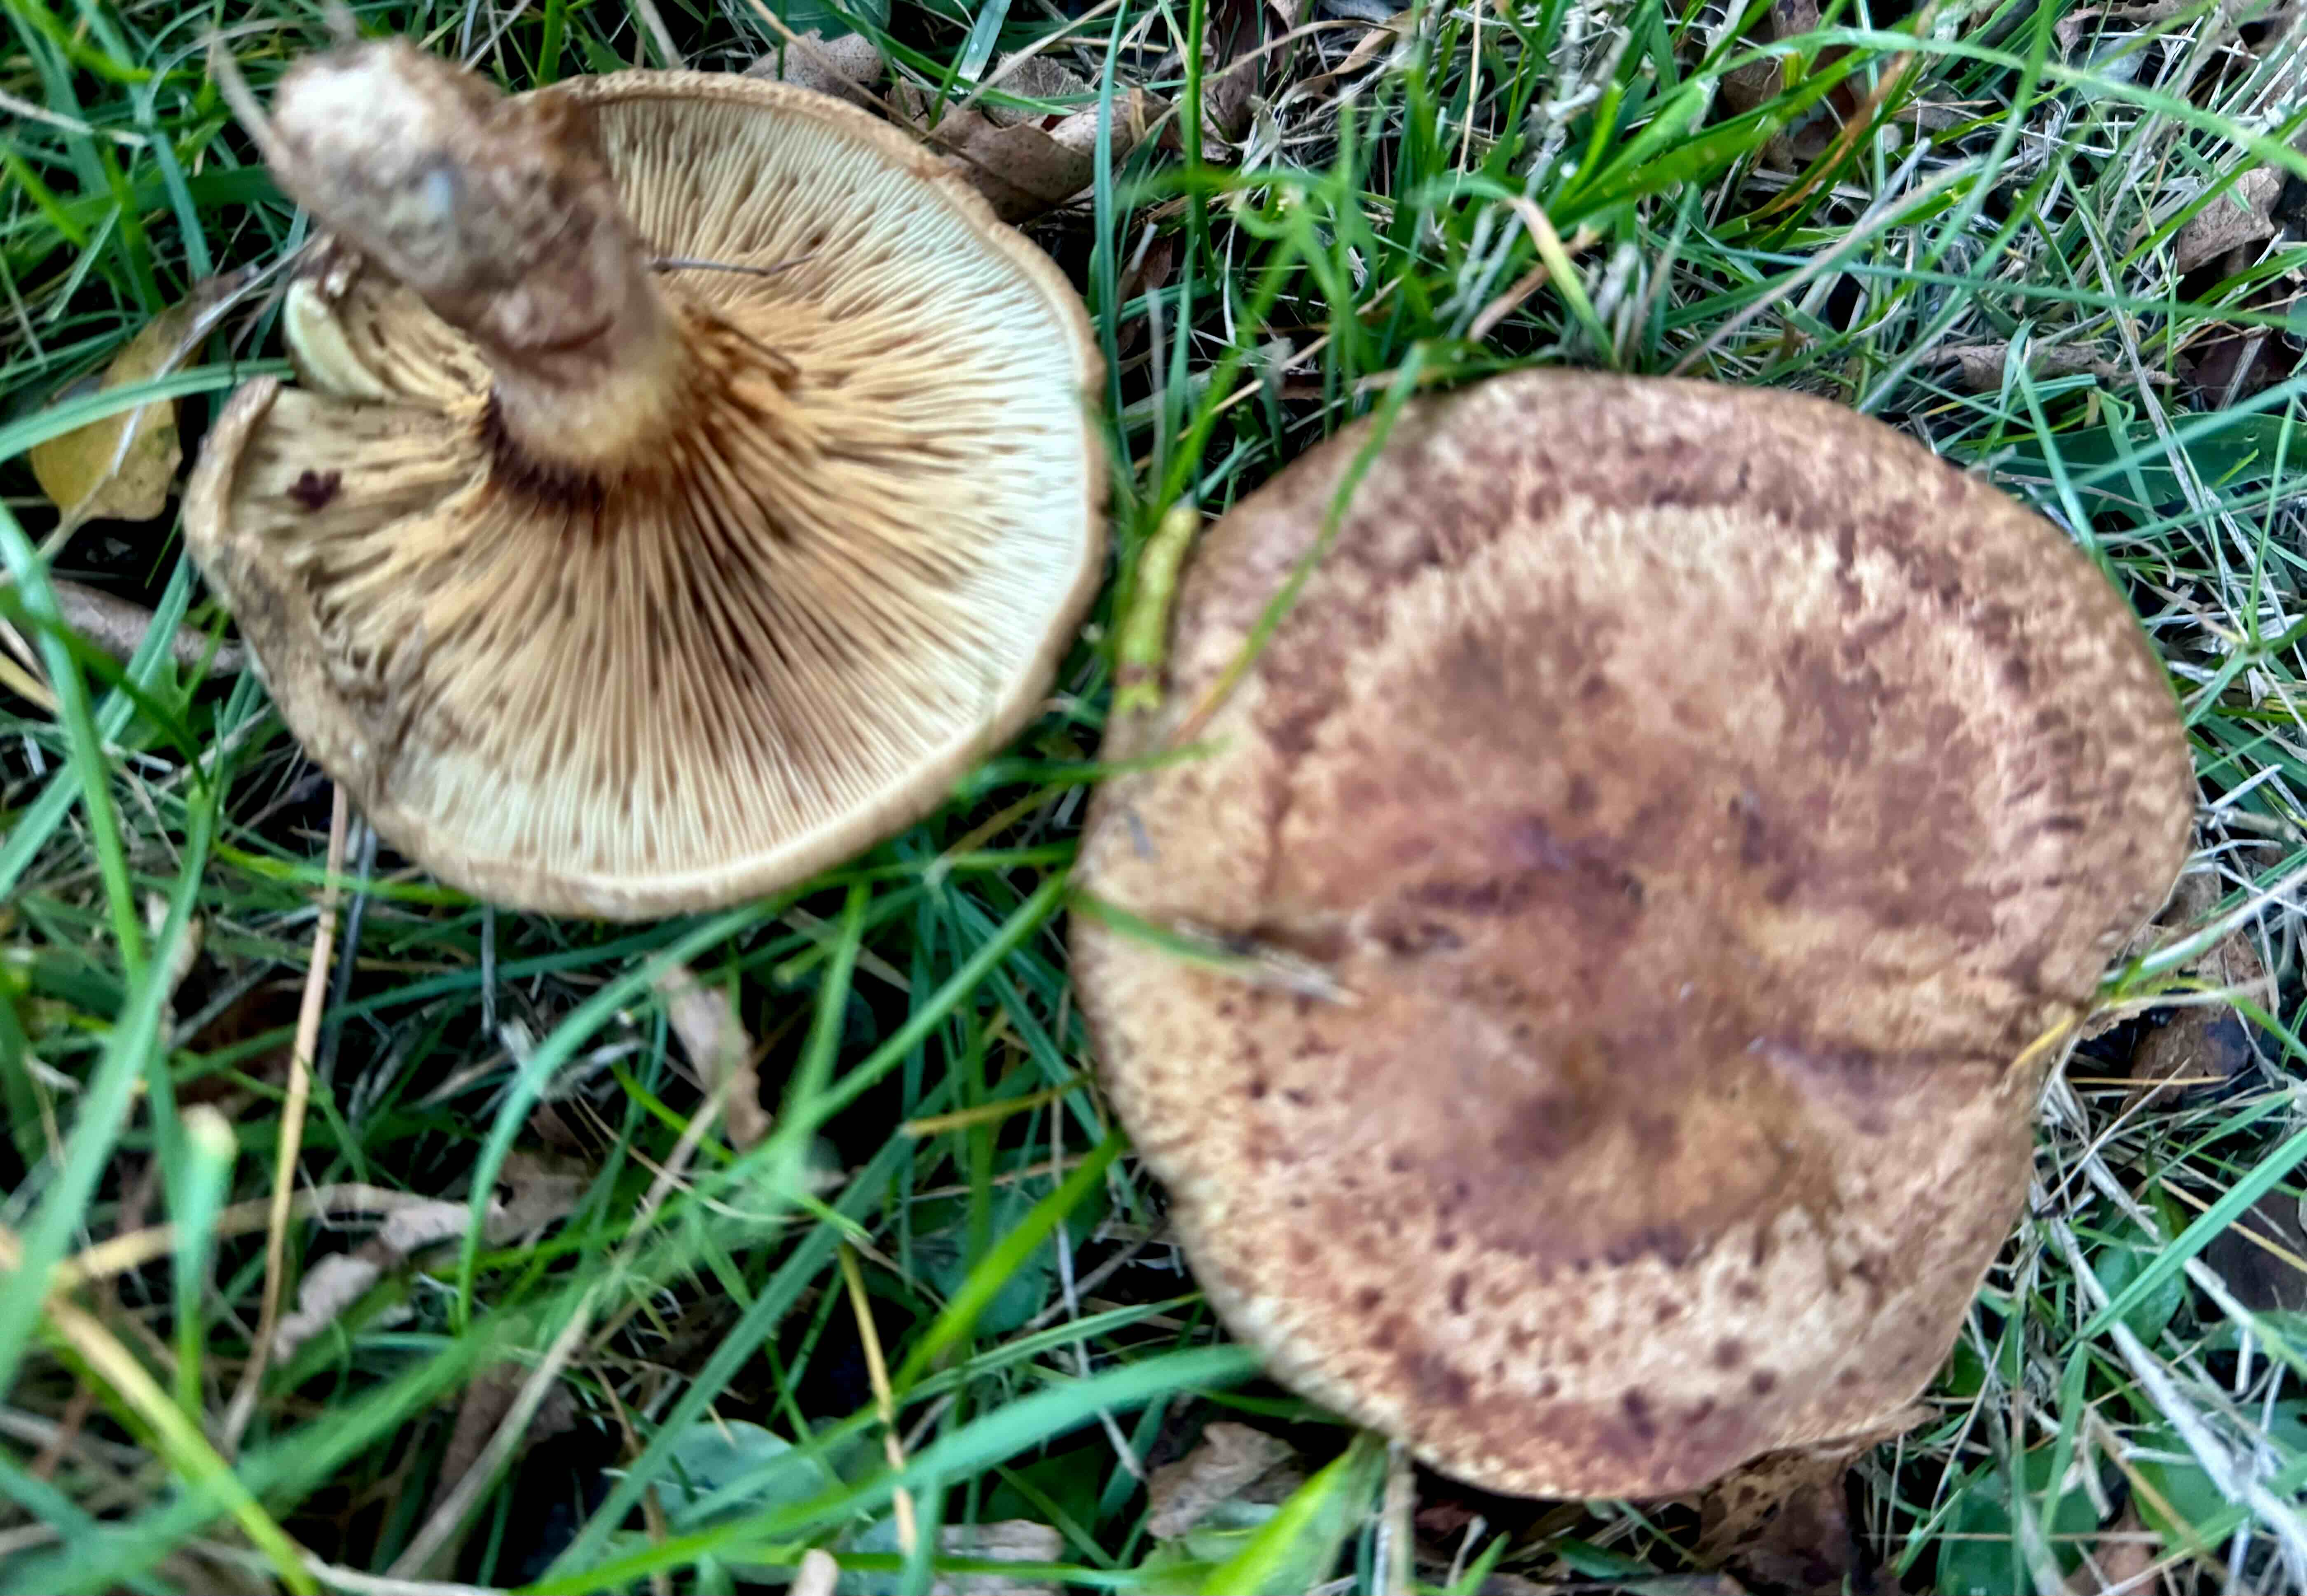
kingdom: Fungi
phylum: Basidiomycota
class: Agaricomycetes
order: Boletales
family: Paxillaceae
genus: Paxillus
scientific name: Paxillus involutus
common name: almindelig netbladhat
